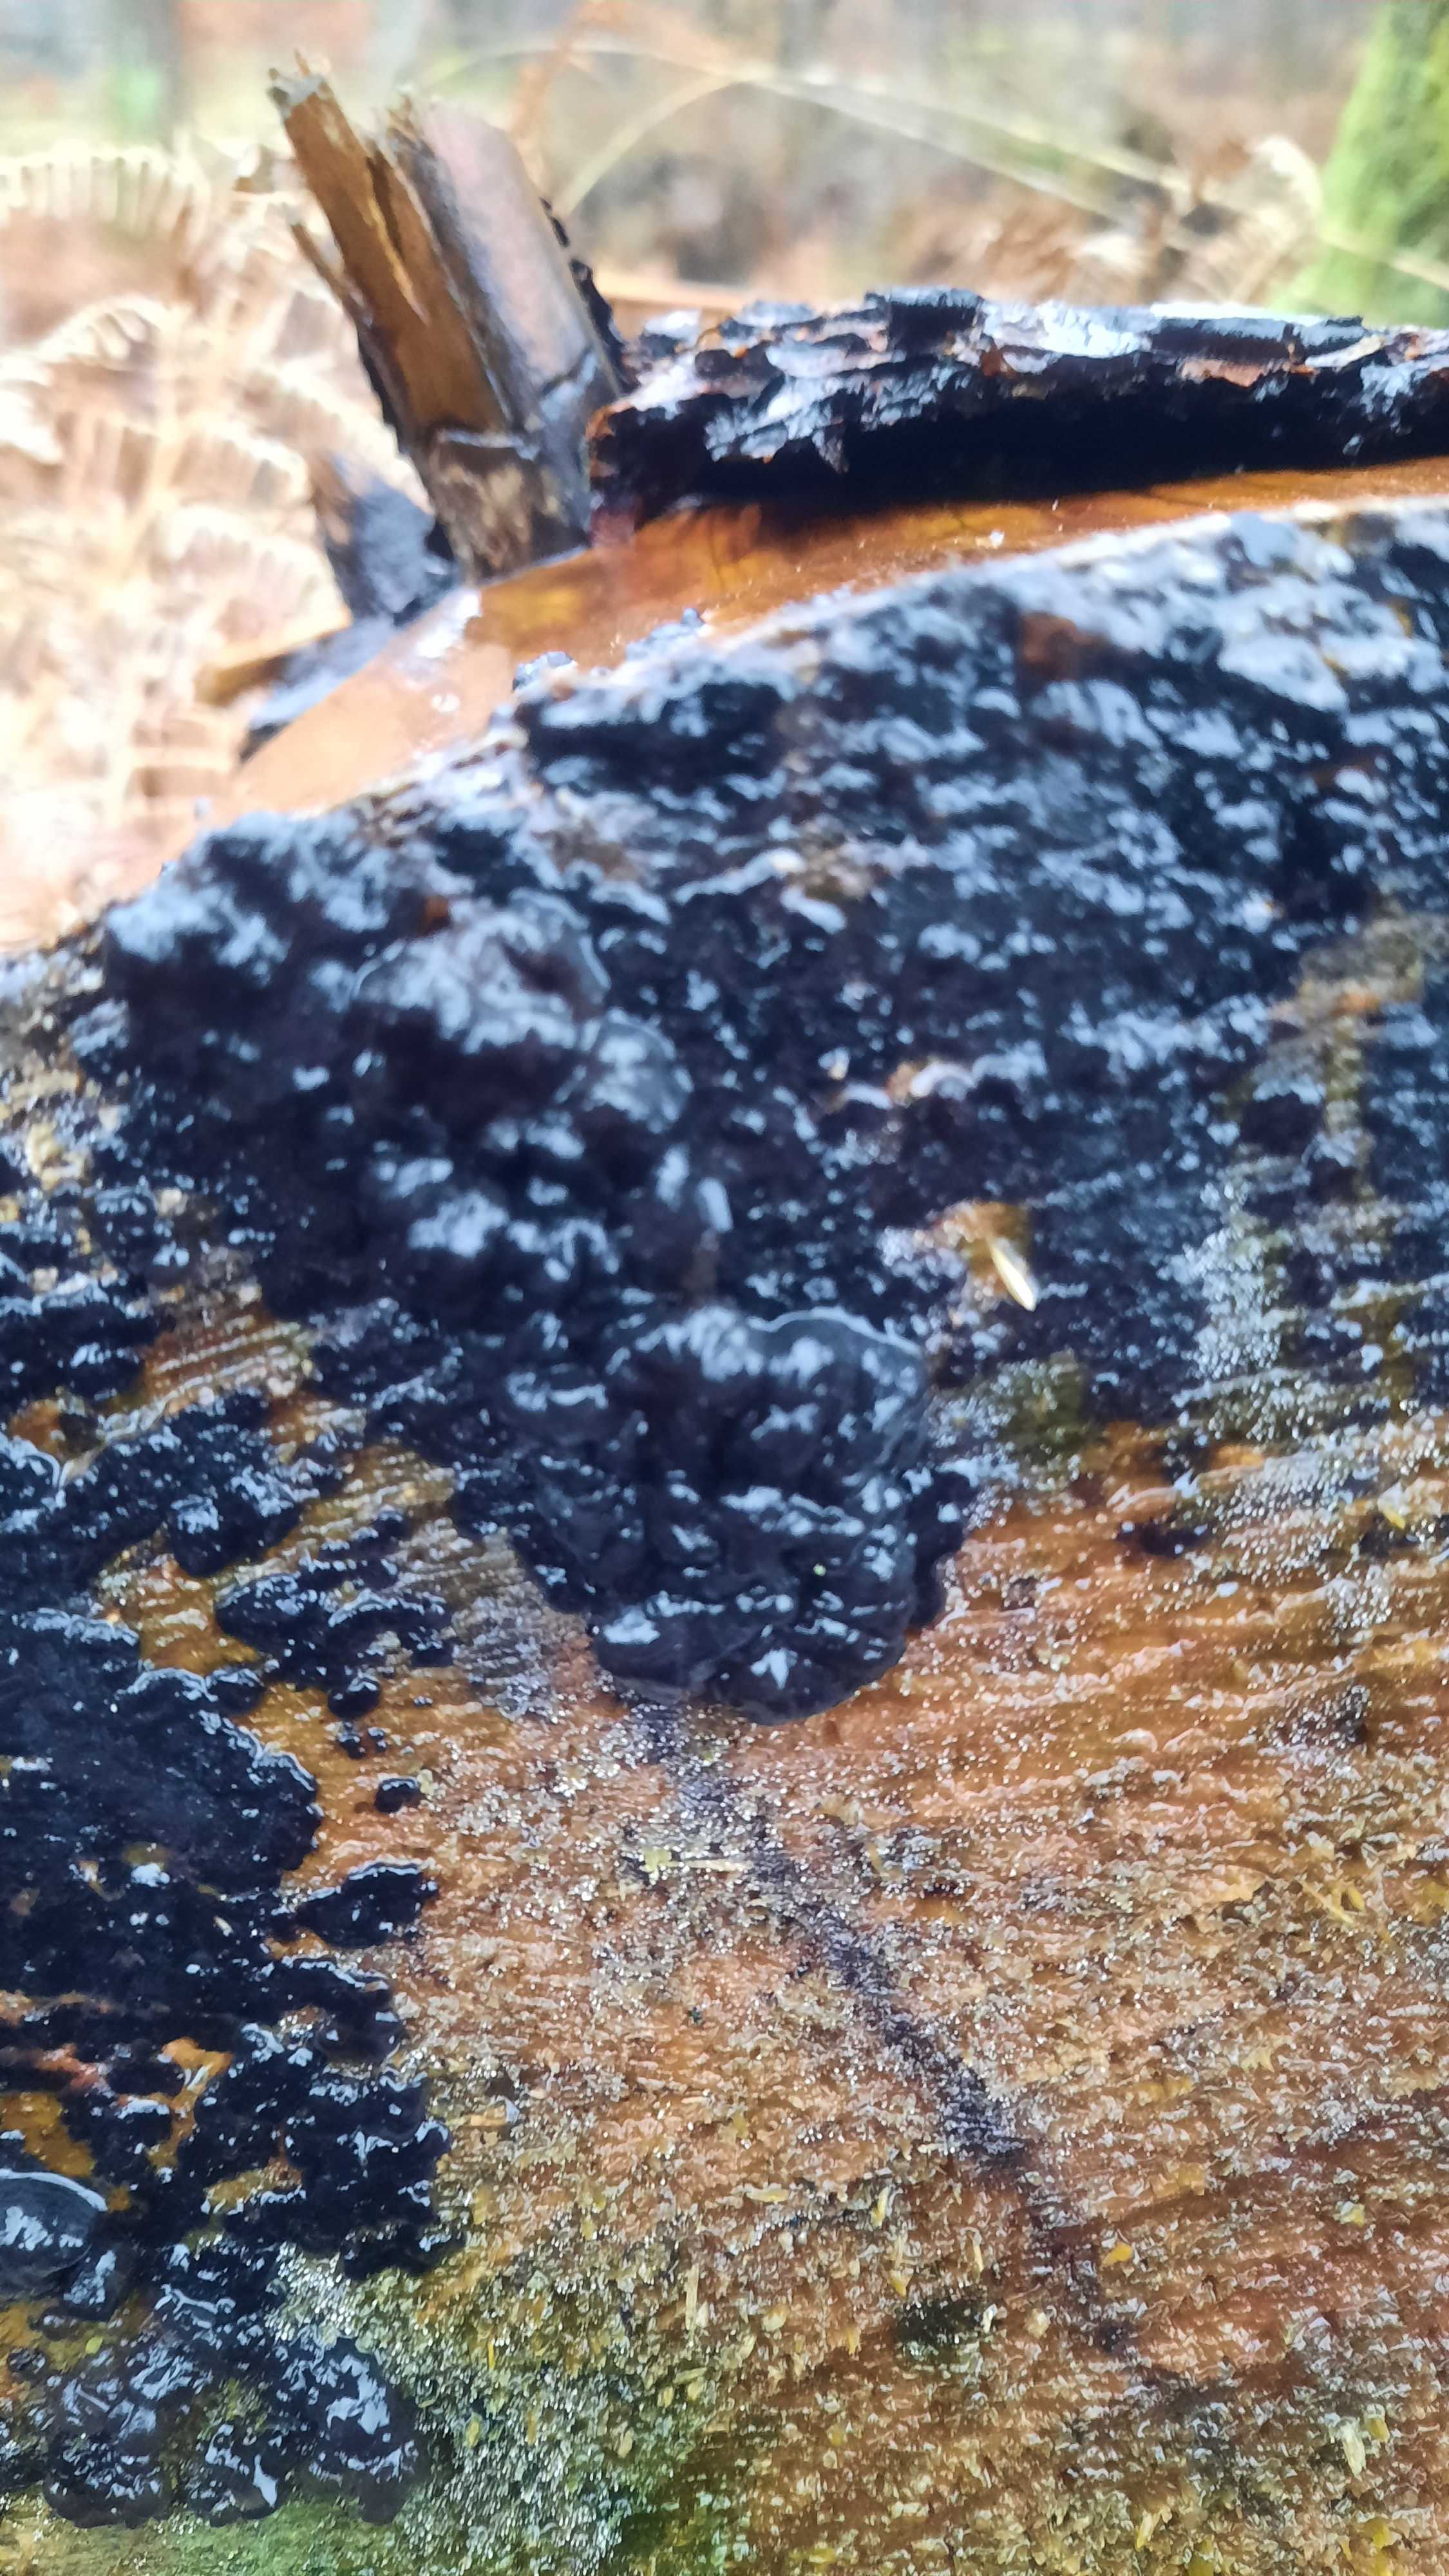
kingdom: Fungi
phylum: Basidiomycota
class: Agaricomycetes
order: Auriculariales
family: Auriculariaceae
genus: Exidia
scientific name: Exidia pithya
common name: gran-bævretop
